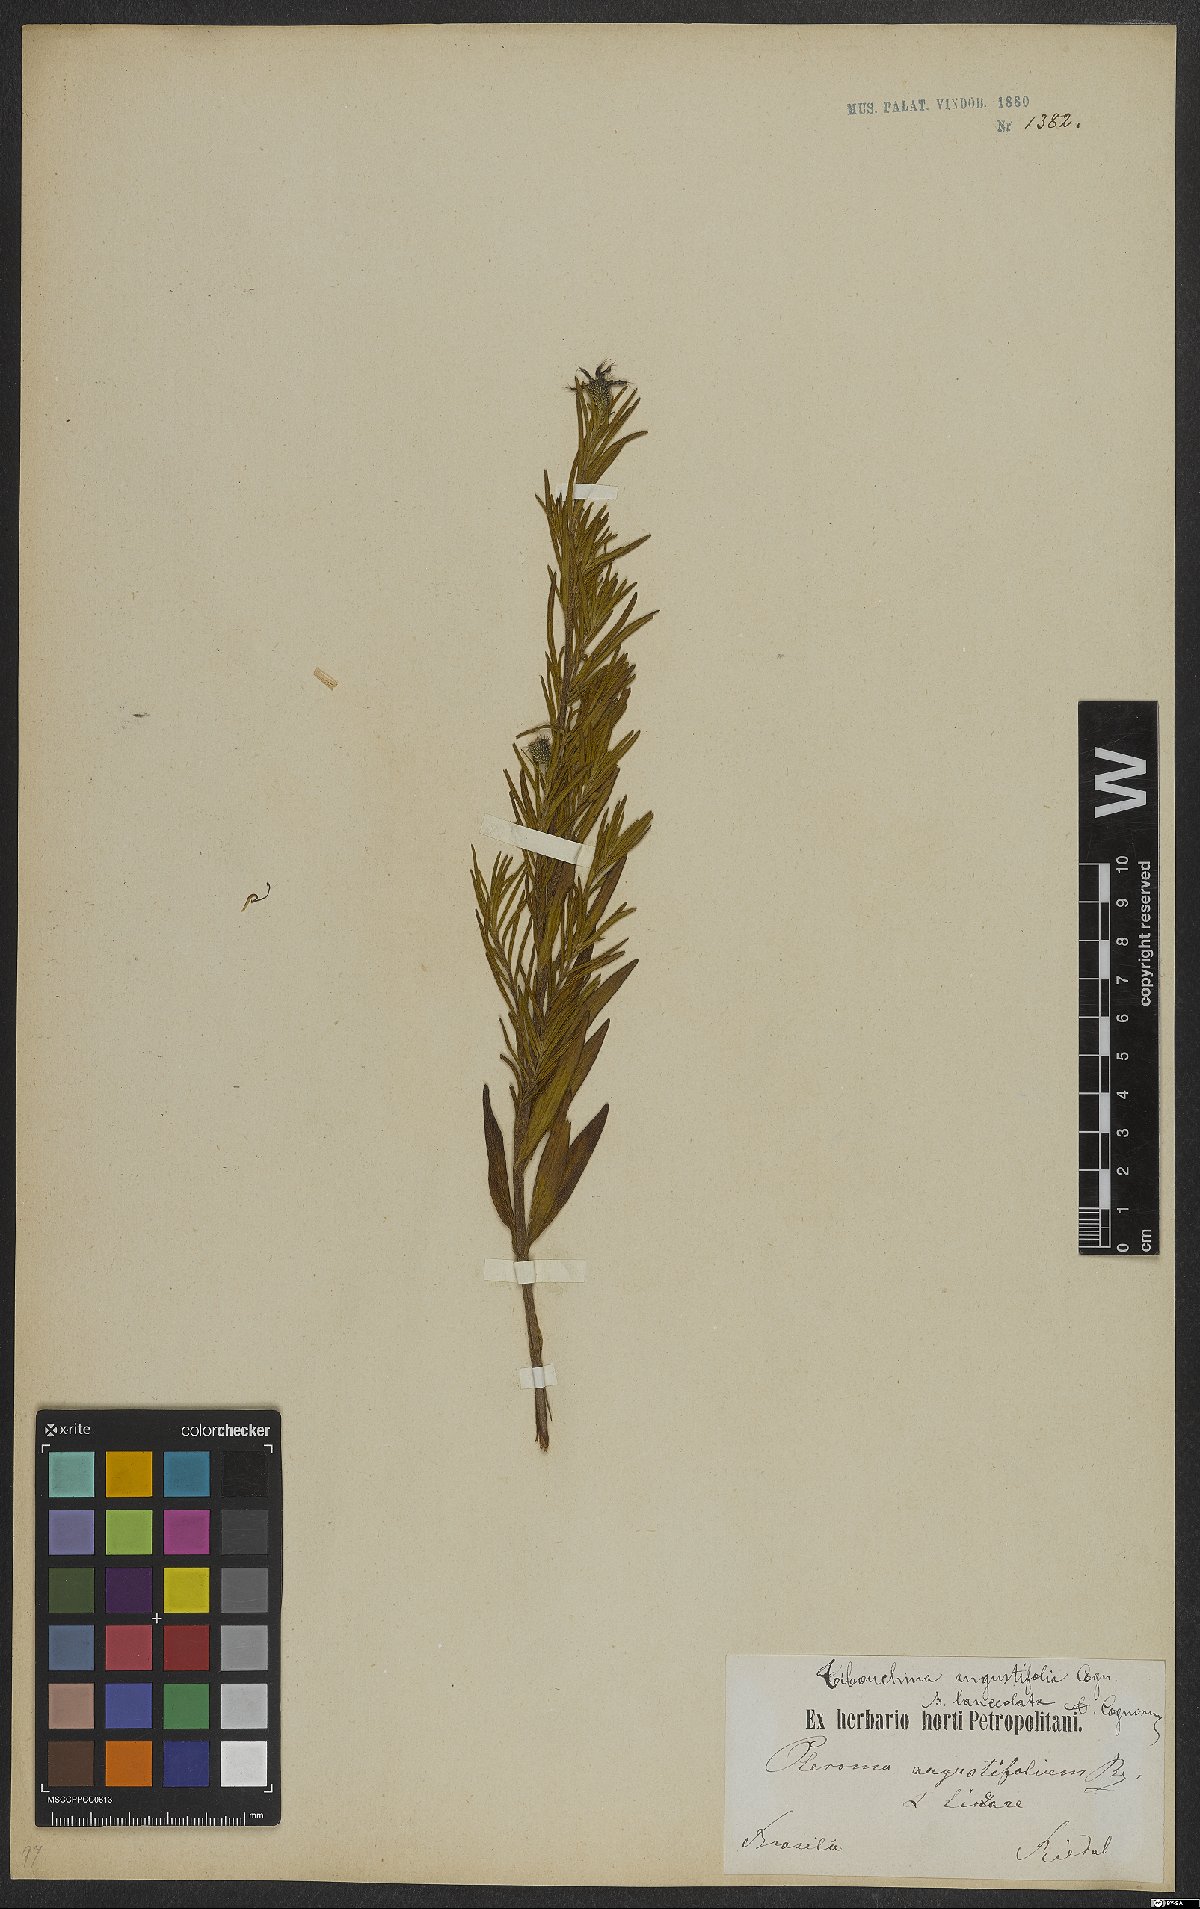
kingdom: Plantae
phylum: Tracheophyta
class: Magnoliopsida
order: Myrtales
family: Melastomataceae
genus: Pleroma
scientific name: Pleroma angustifolium
